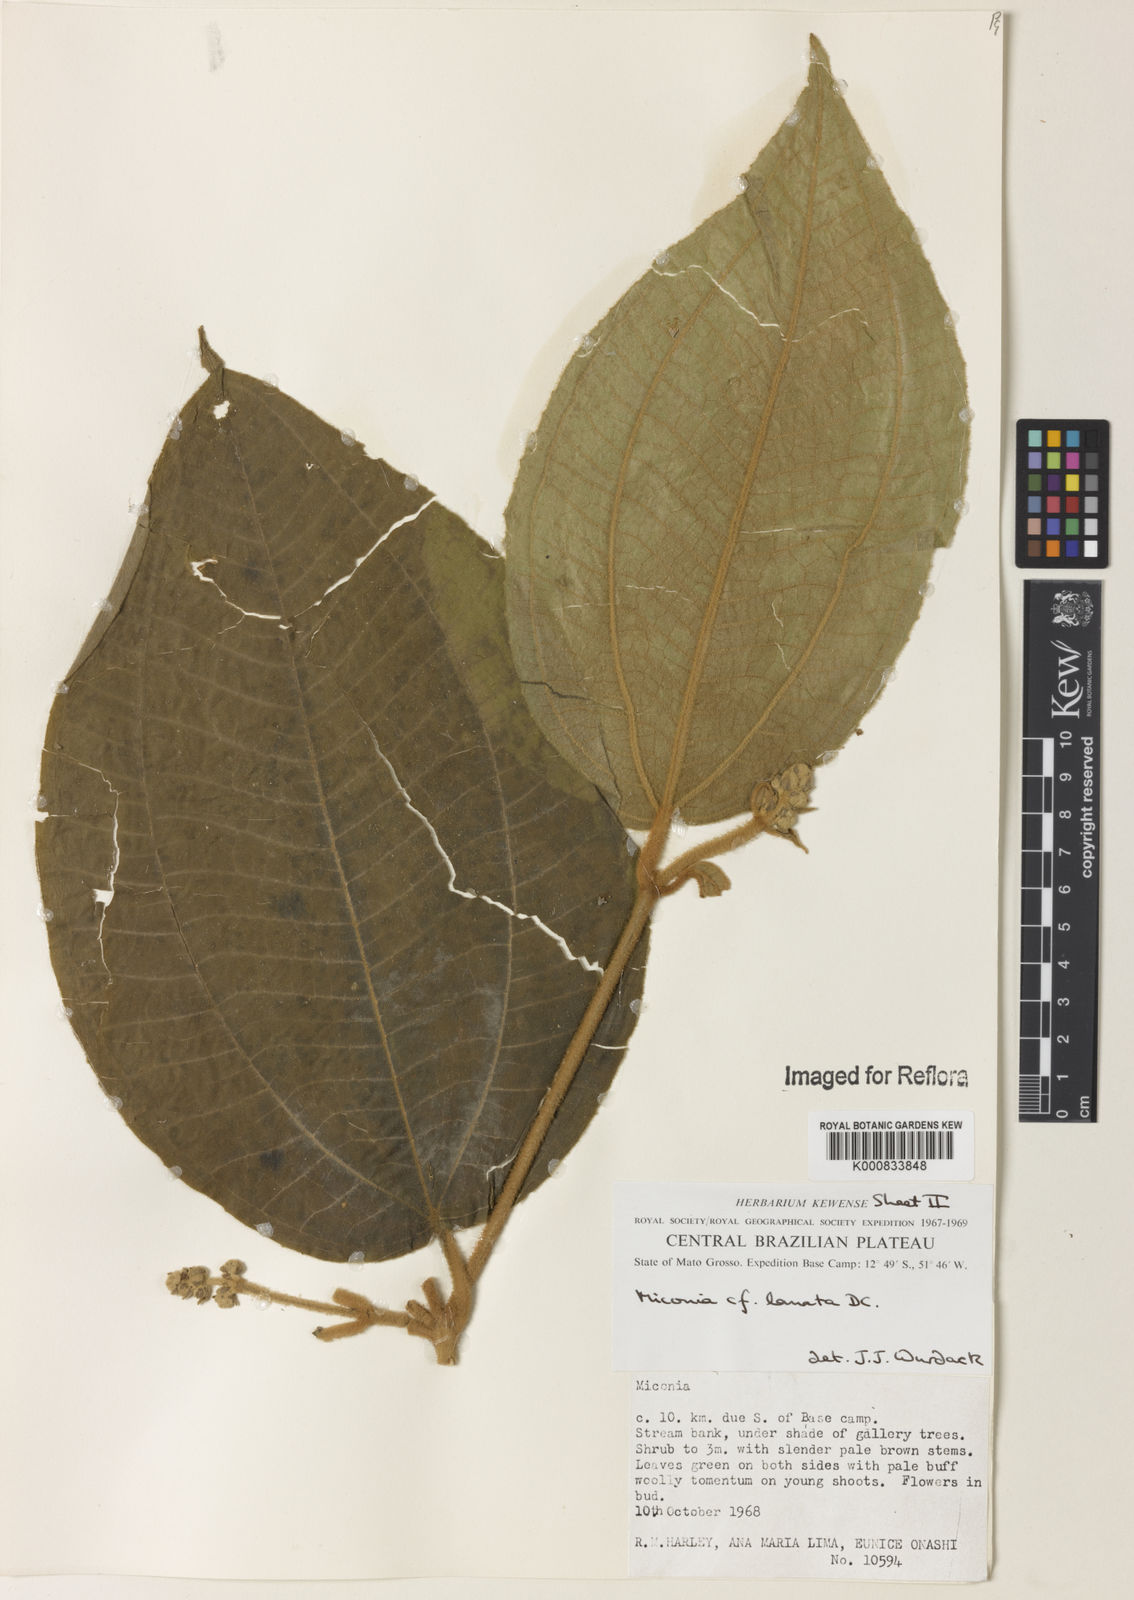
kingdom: Plantae
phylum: Tracheophyta
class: Magnoliopsida
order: Myrtales
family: Melastomataceae
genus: Miconia
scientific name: Miconia lanata
